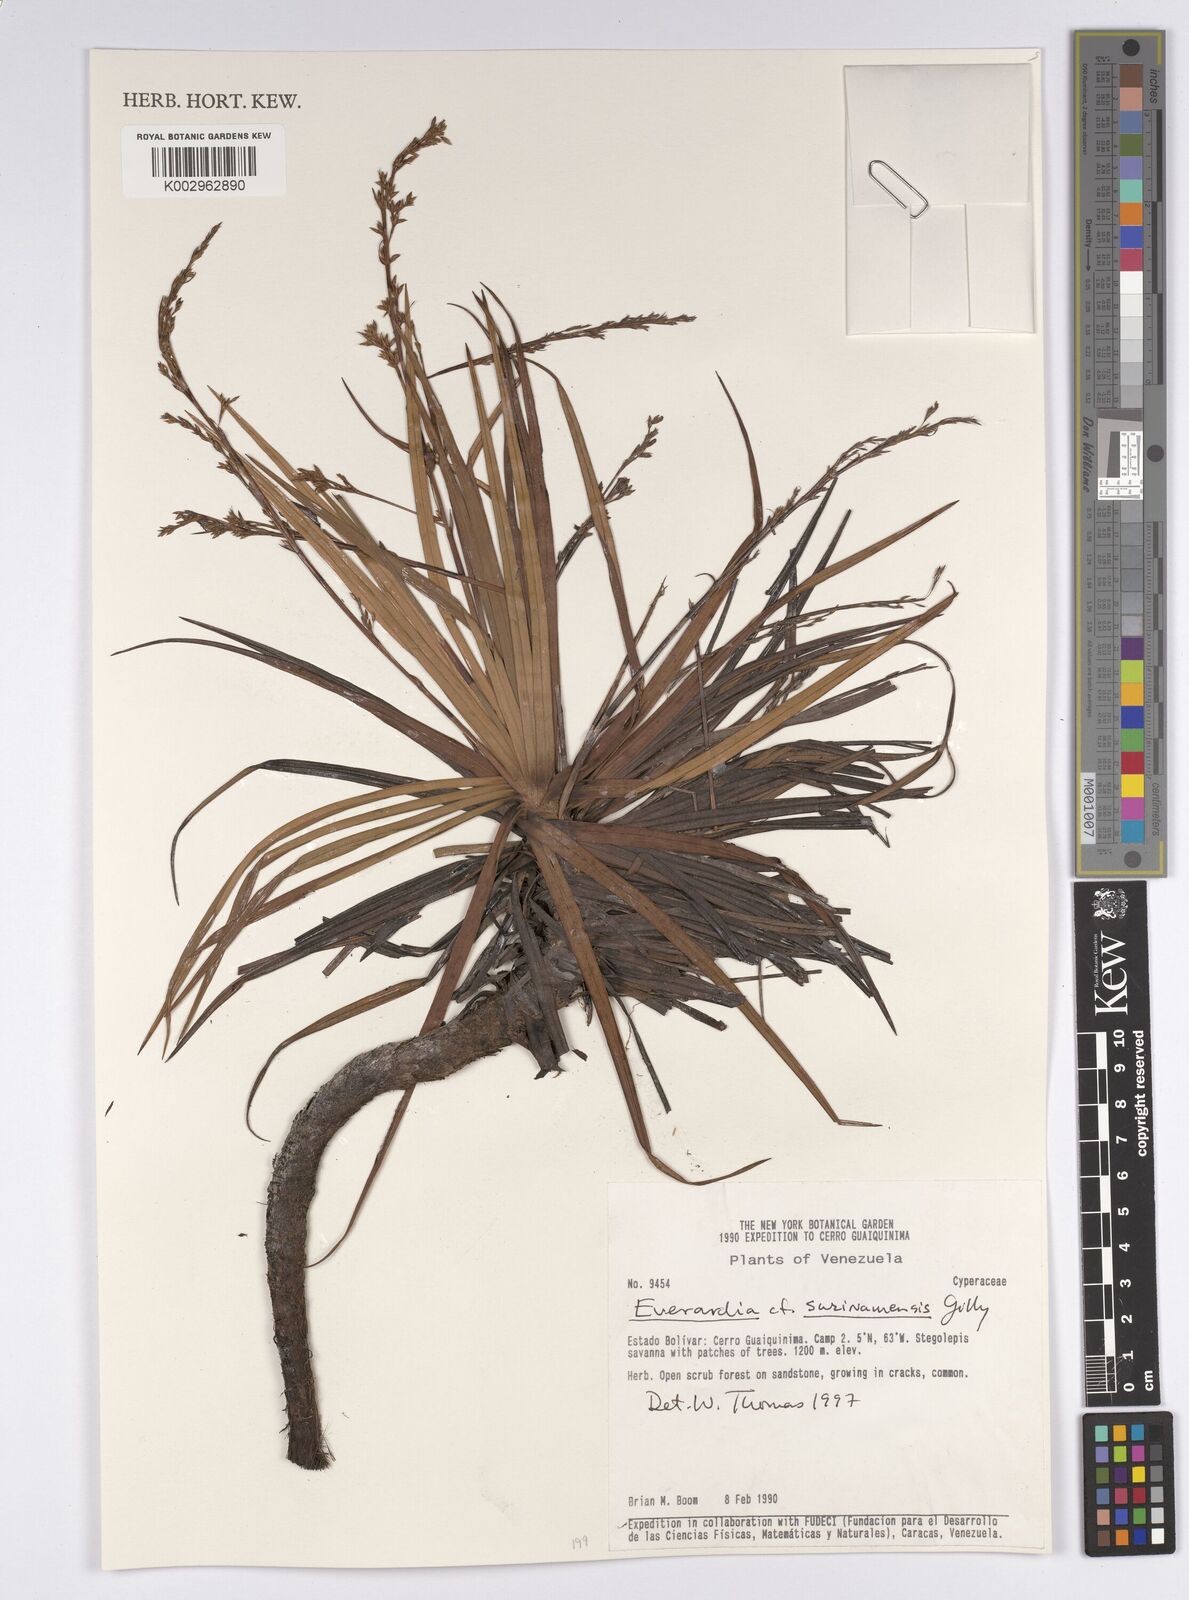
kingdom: Plantae
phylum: Tracheophyta
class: Liliopsida
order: Poales
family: Cyperaceae
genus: Cephalocarpus
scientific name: Cephalocarpus montanus
